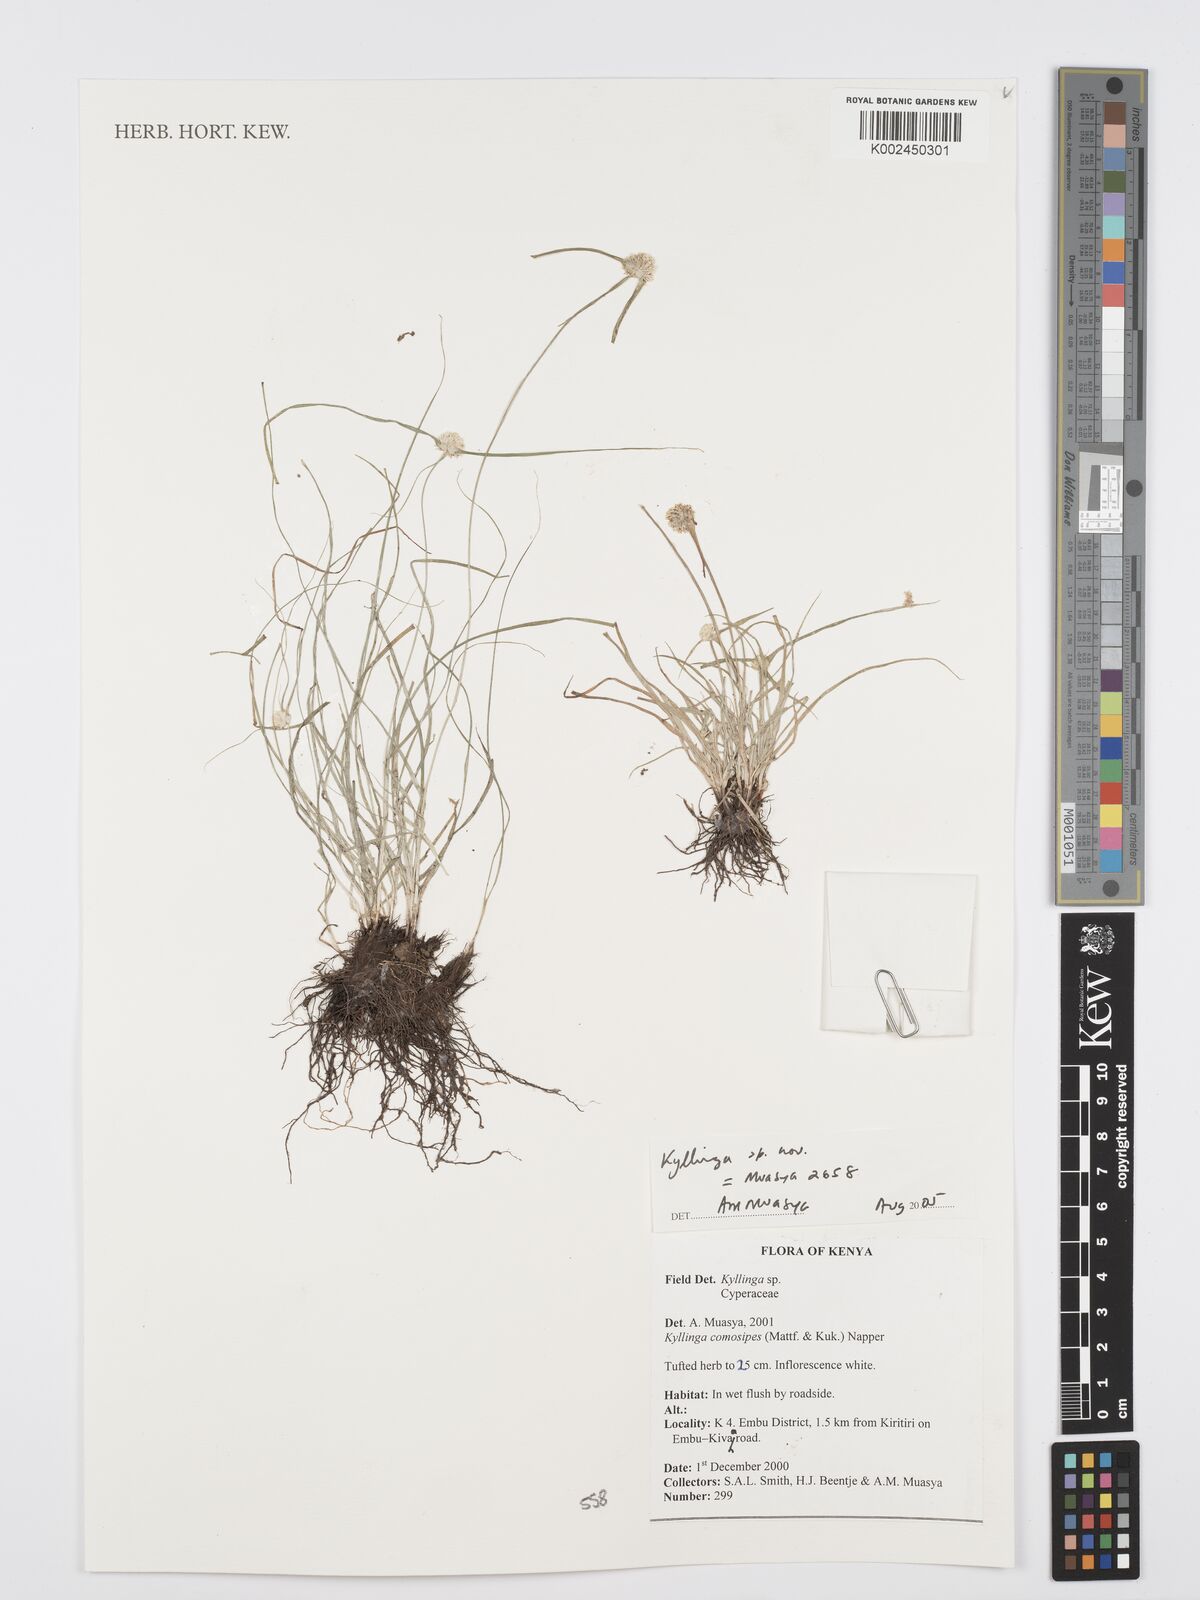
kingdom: Plantae
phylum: Tracheophyta
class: Liliopsida
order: Poales
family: Cyperaceae
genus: Cyperus
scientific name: Cyperus
